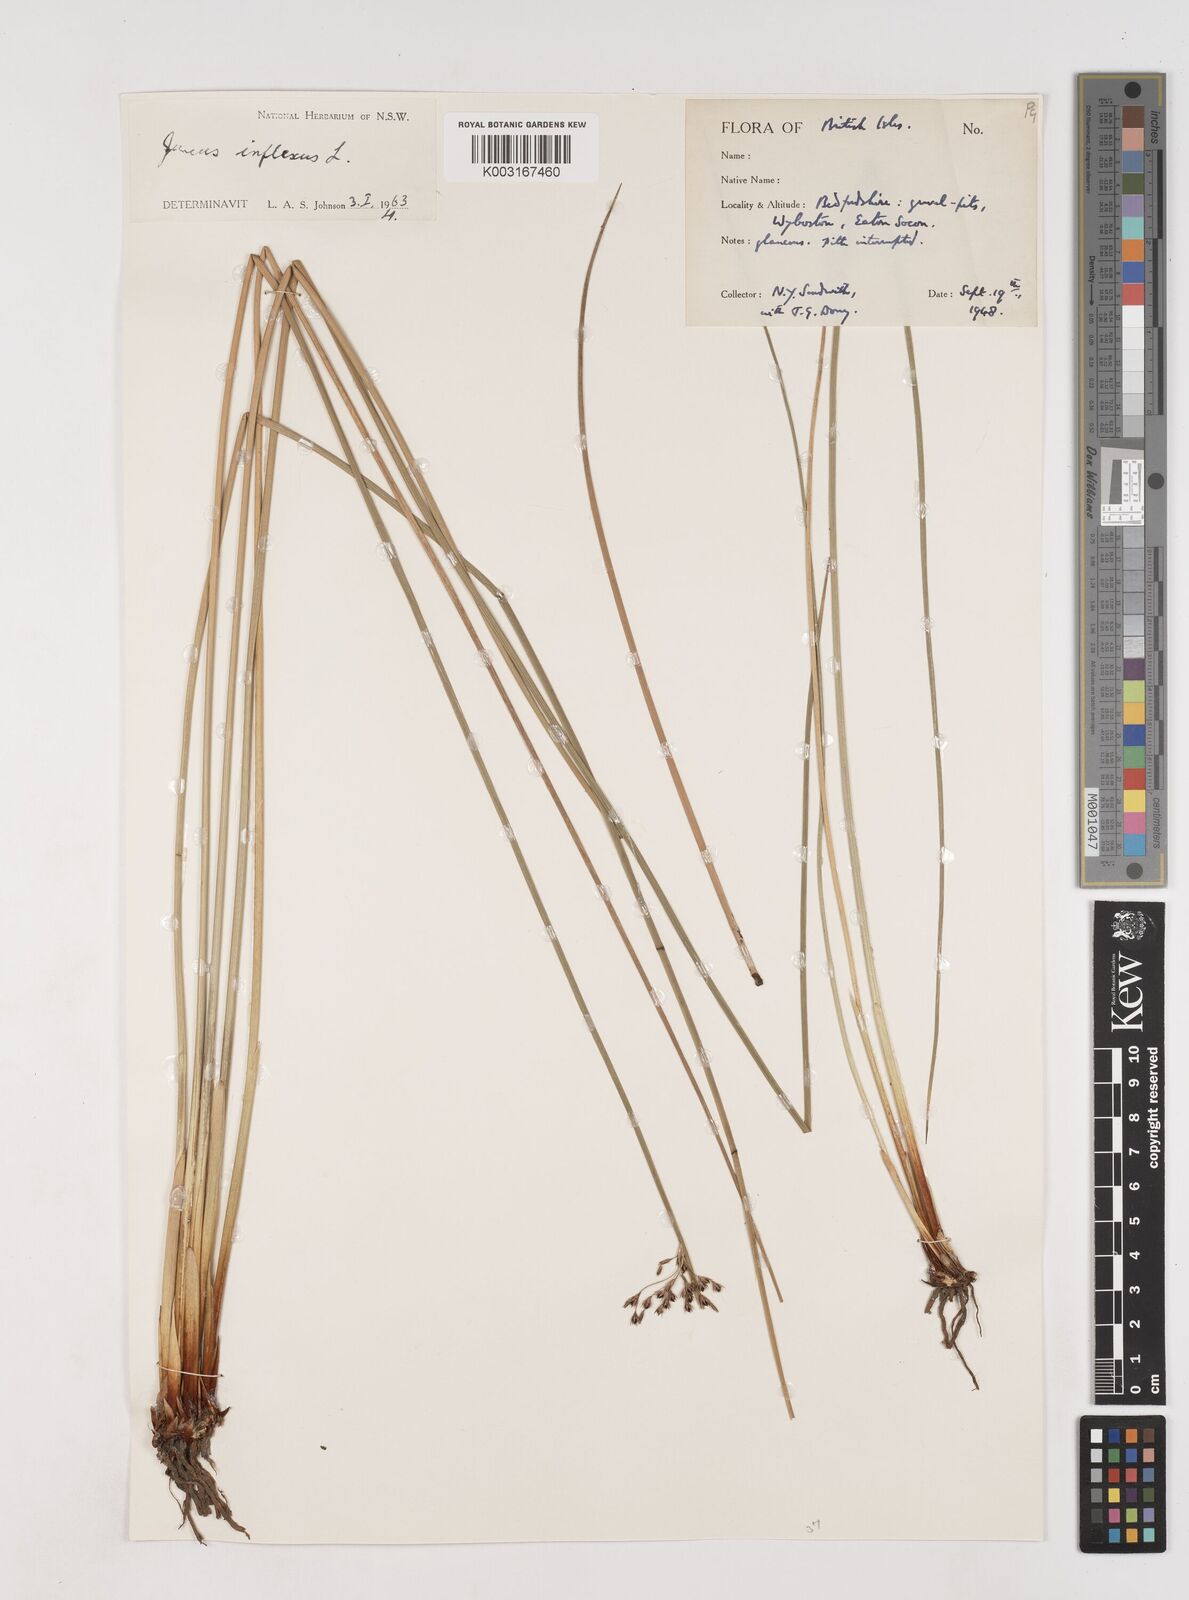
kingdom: Plantae
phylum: Tracheophyta
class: Liliopsida
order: Poales
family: Juncaceae
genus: Juncus
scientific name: Juncus inflexus
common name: Hard rush
